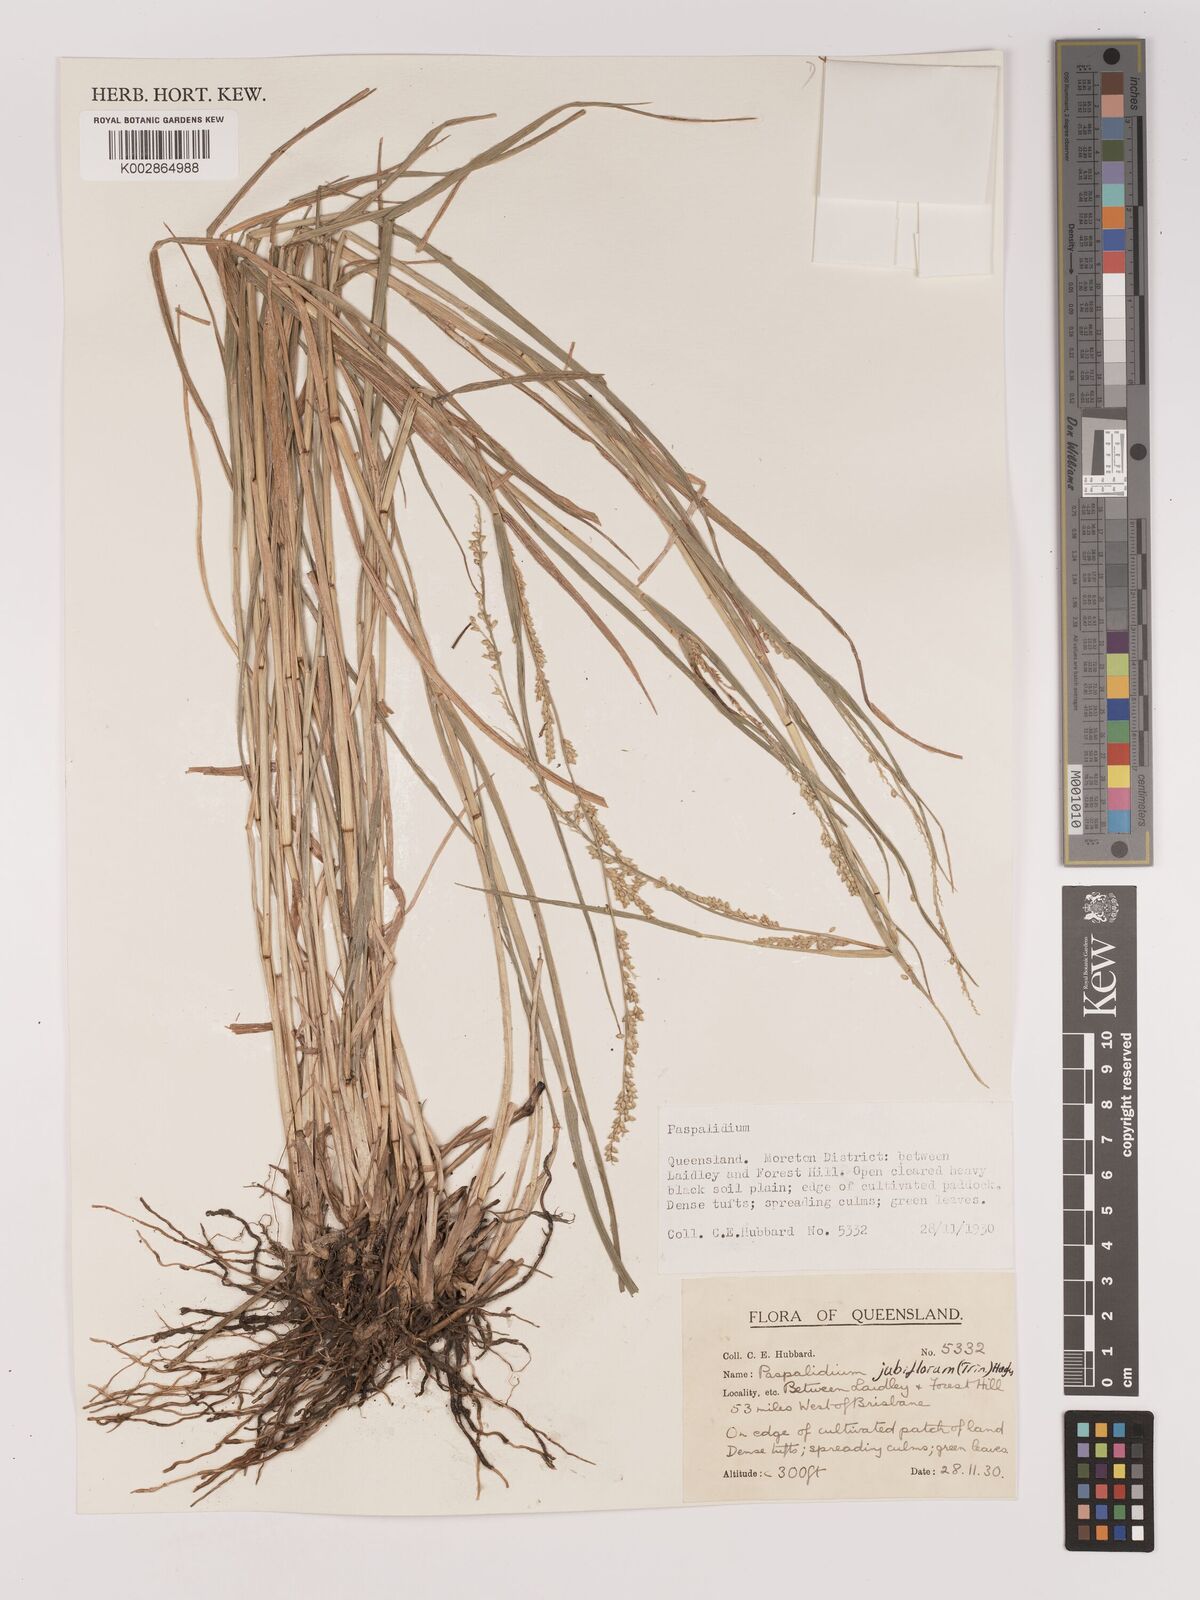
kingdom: Plantae
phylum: Tracheophyta
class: Liliopsida
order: Poales
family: Poaceae
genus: Setaria
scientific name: Setaria
